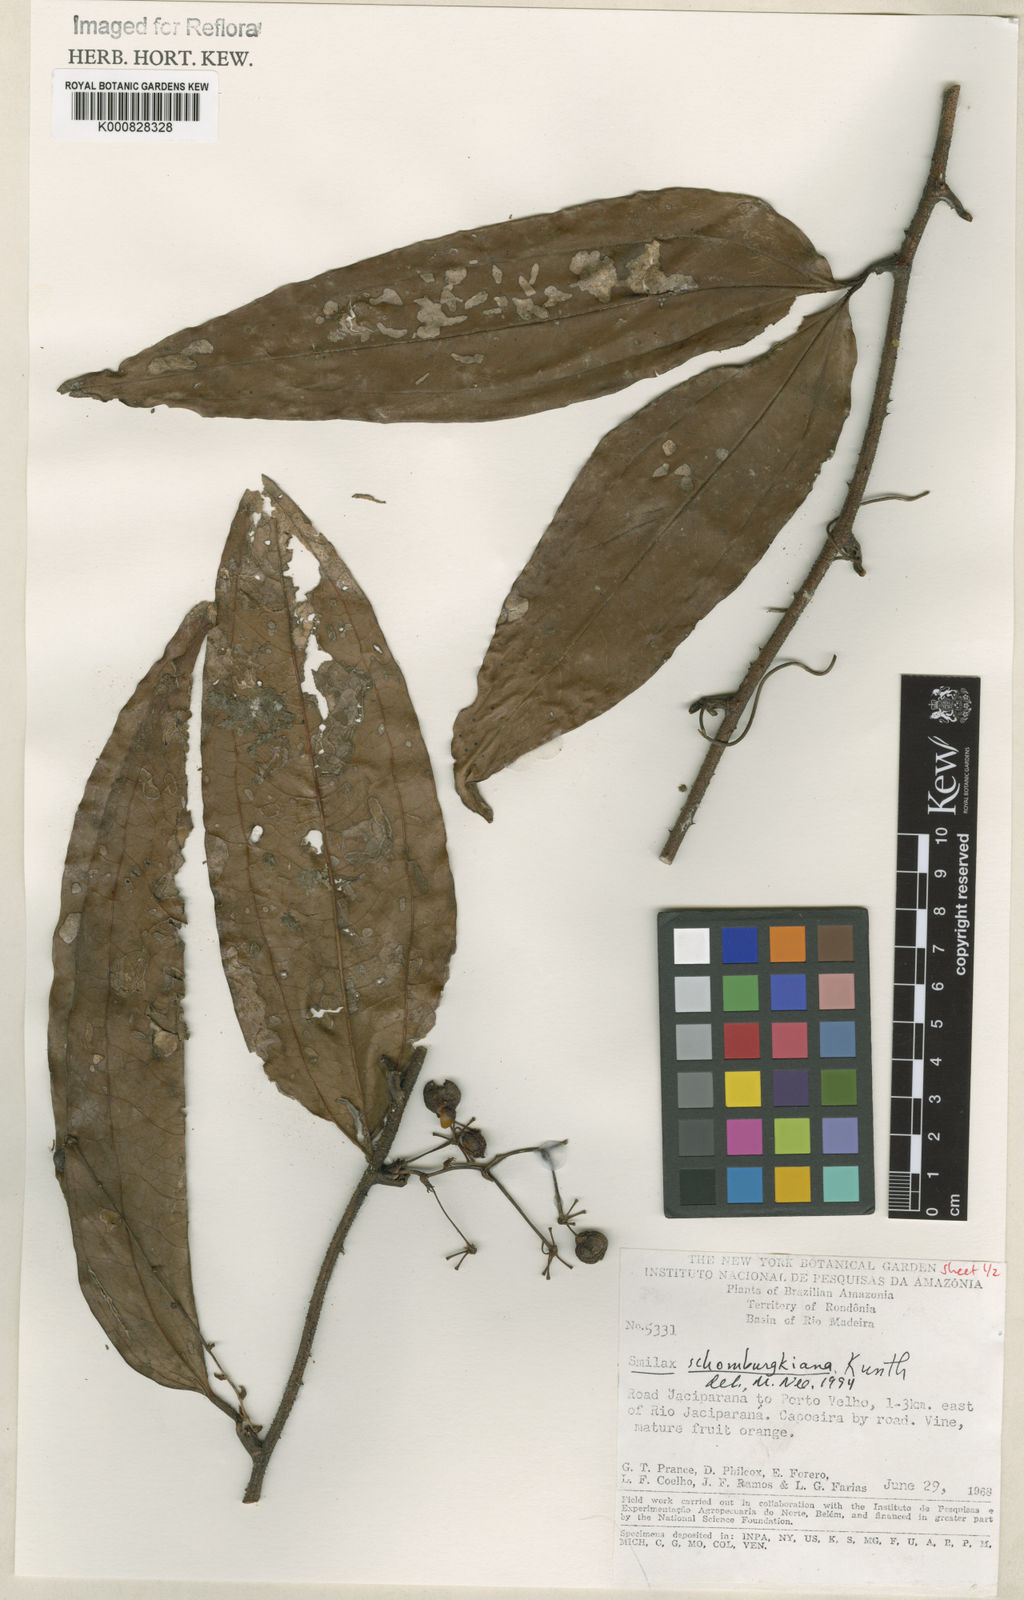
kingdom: Plantae
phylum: Tracheophyta
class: Liliopsida
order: Liliales
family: Smilacaceae
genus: Smilax
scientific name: Smilax schomburgkiana
